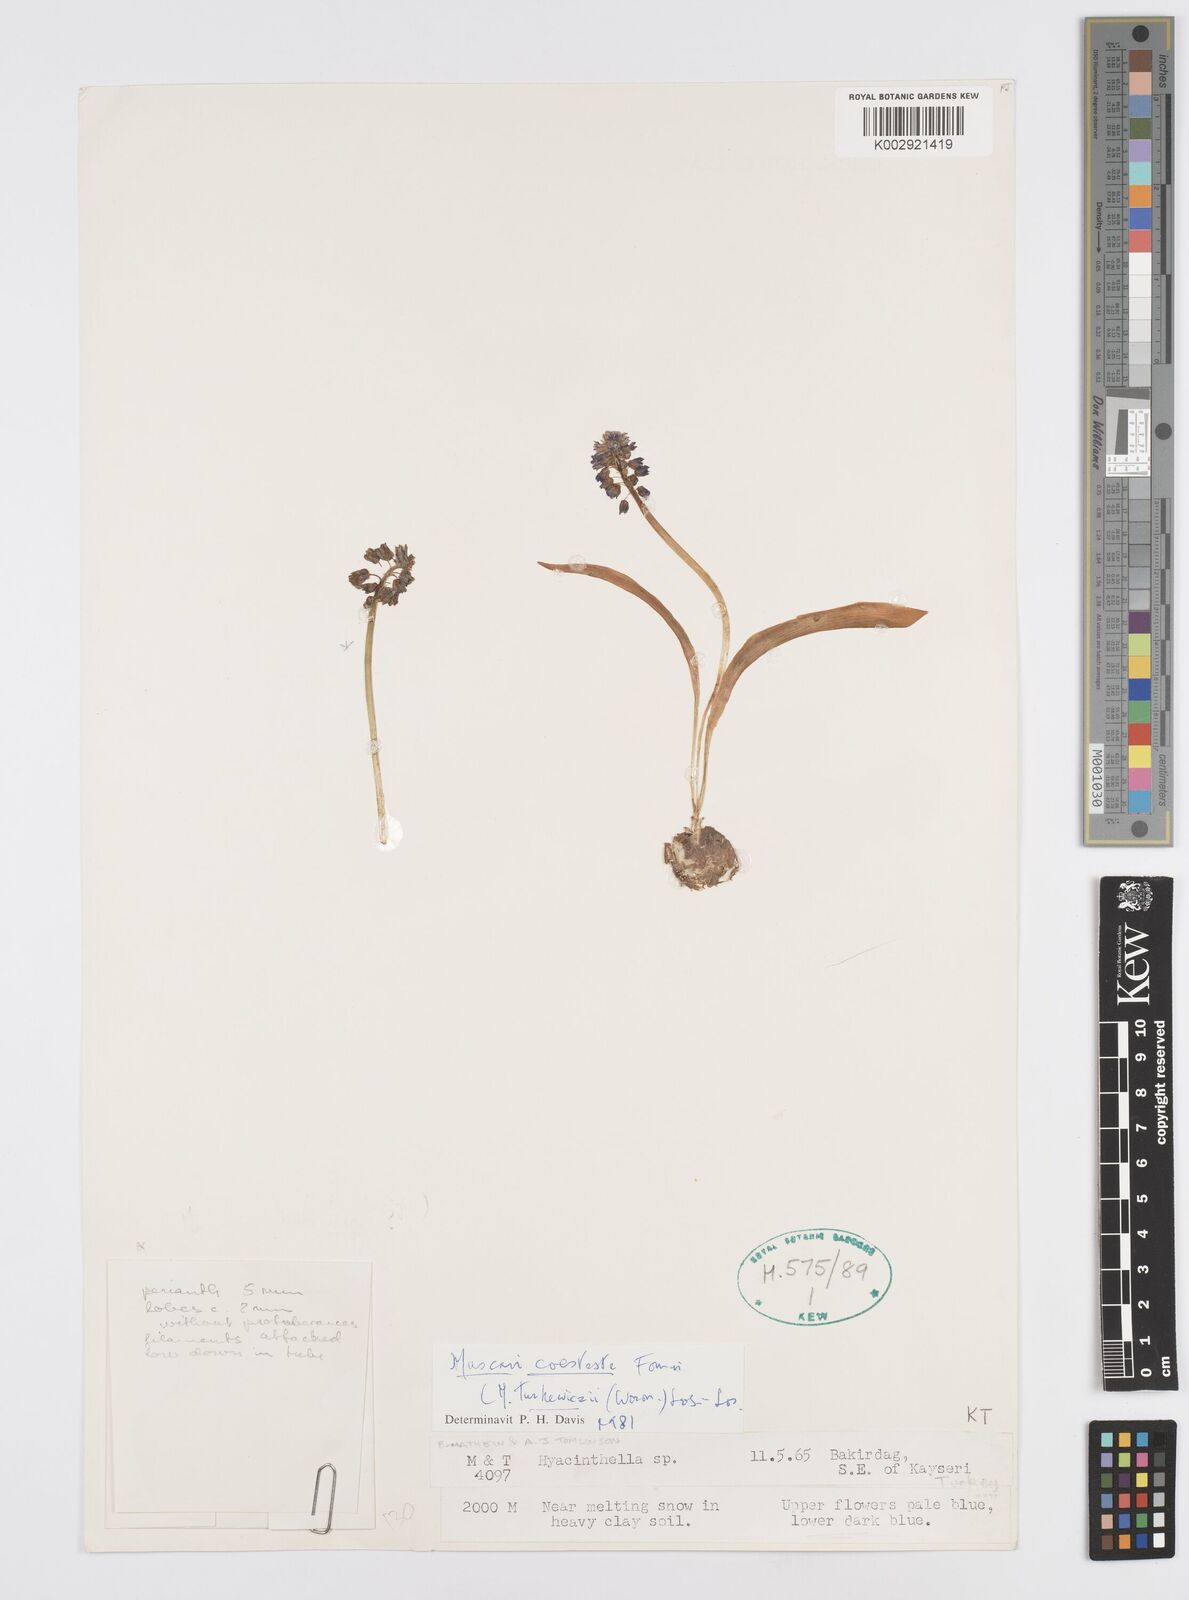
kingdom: Plantae
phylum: Tracheophyta
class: Liliopsida
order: Asparagales
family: Asparagaceae
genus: Muscari
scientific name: Muscari
